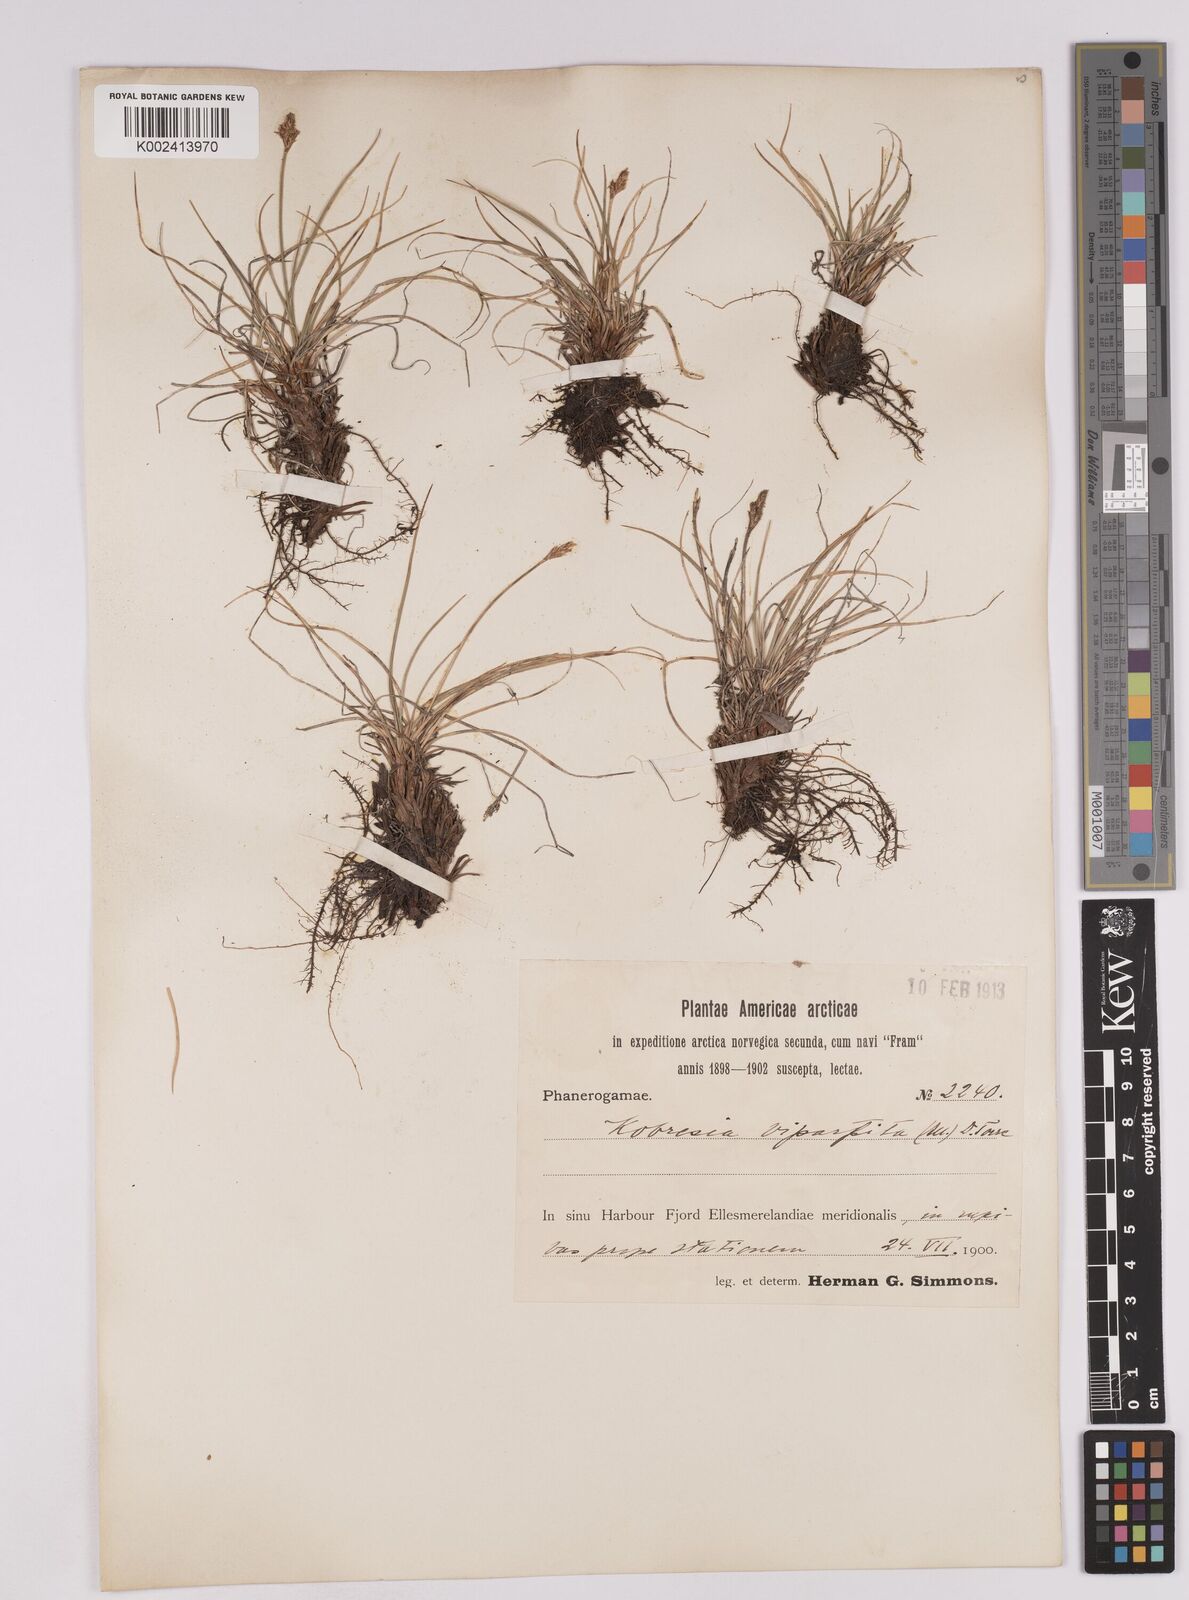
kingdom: Plantae
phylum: Tracheophyta
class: Liliopsida
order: Poales
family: Cyperaceae
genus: Carex
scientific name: Carex simpliciuscula
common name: Simple bog sedge
